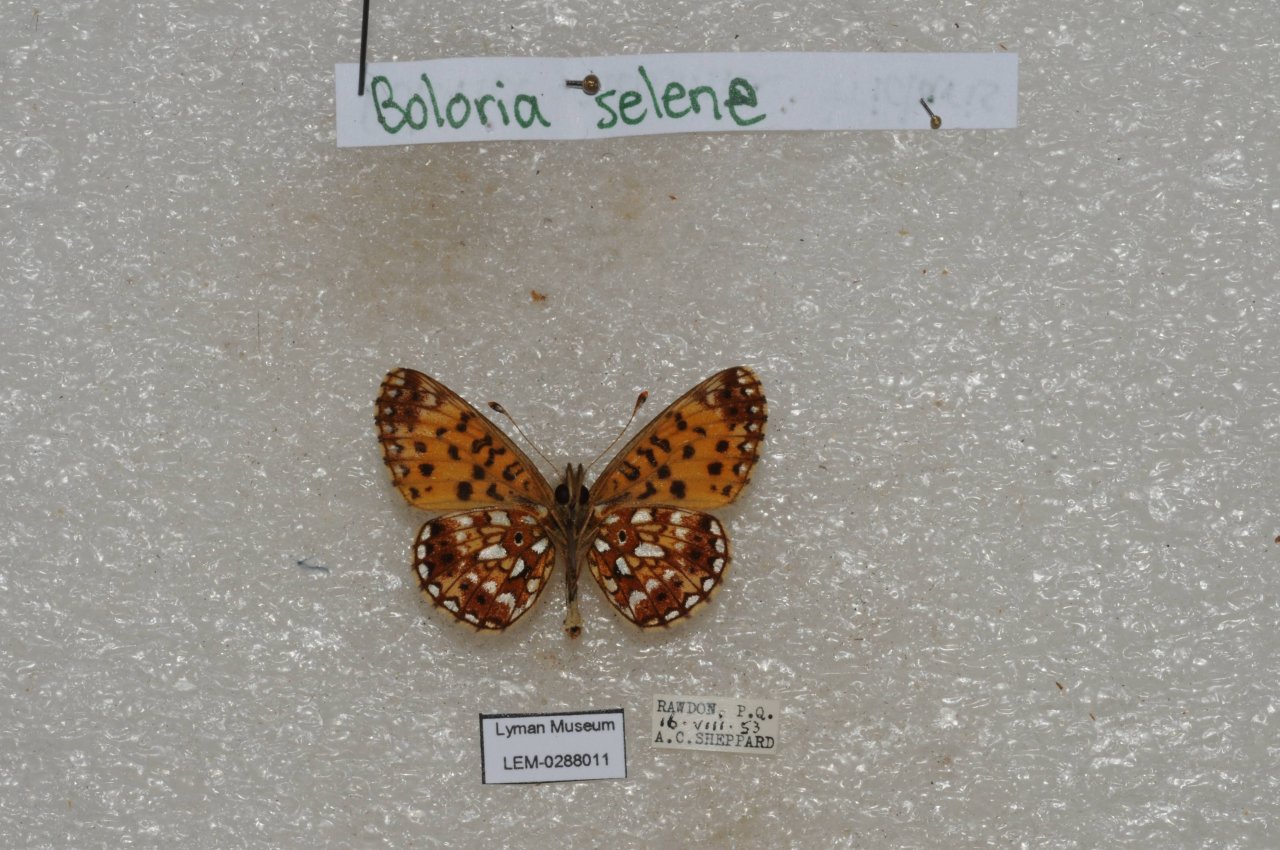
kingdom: Animalia
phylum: Arthropoda
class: Insecta
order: Lepidoptera
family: Nymphalidae
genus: Boloria
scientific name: Boloria selene
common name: Silver-bordered Fritillary
